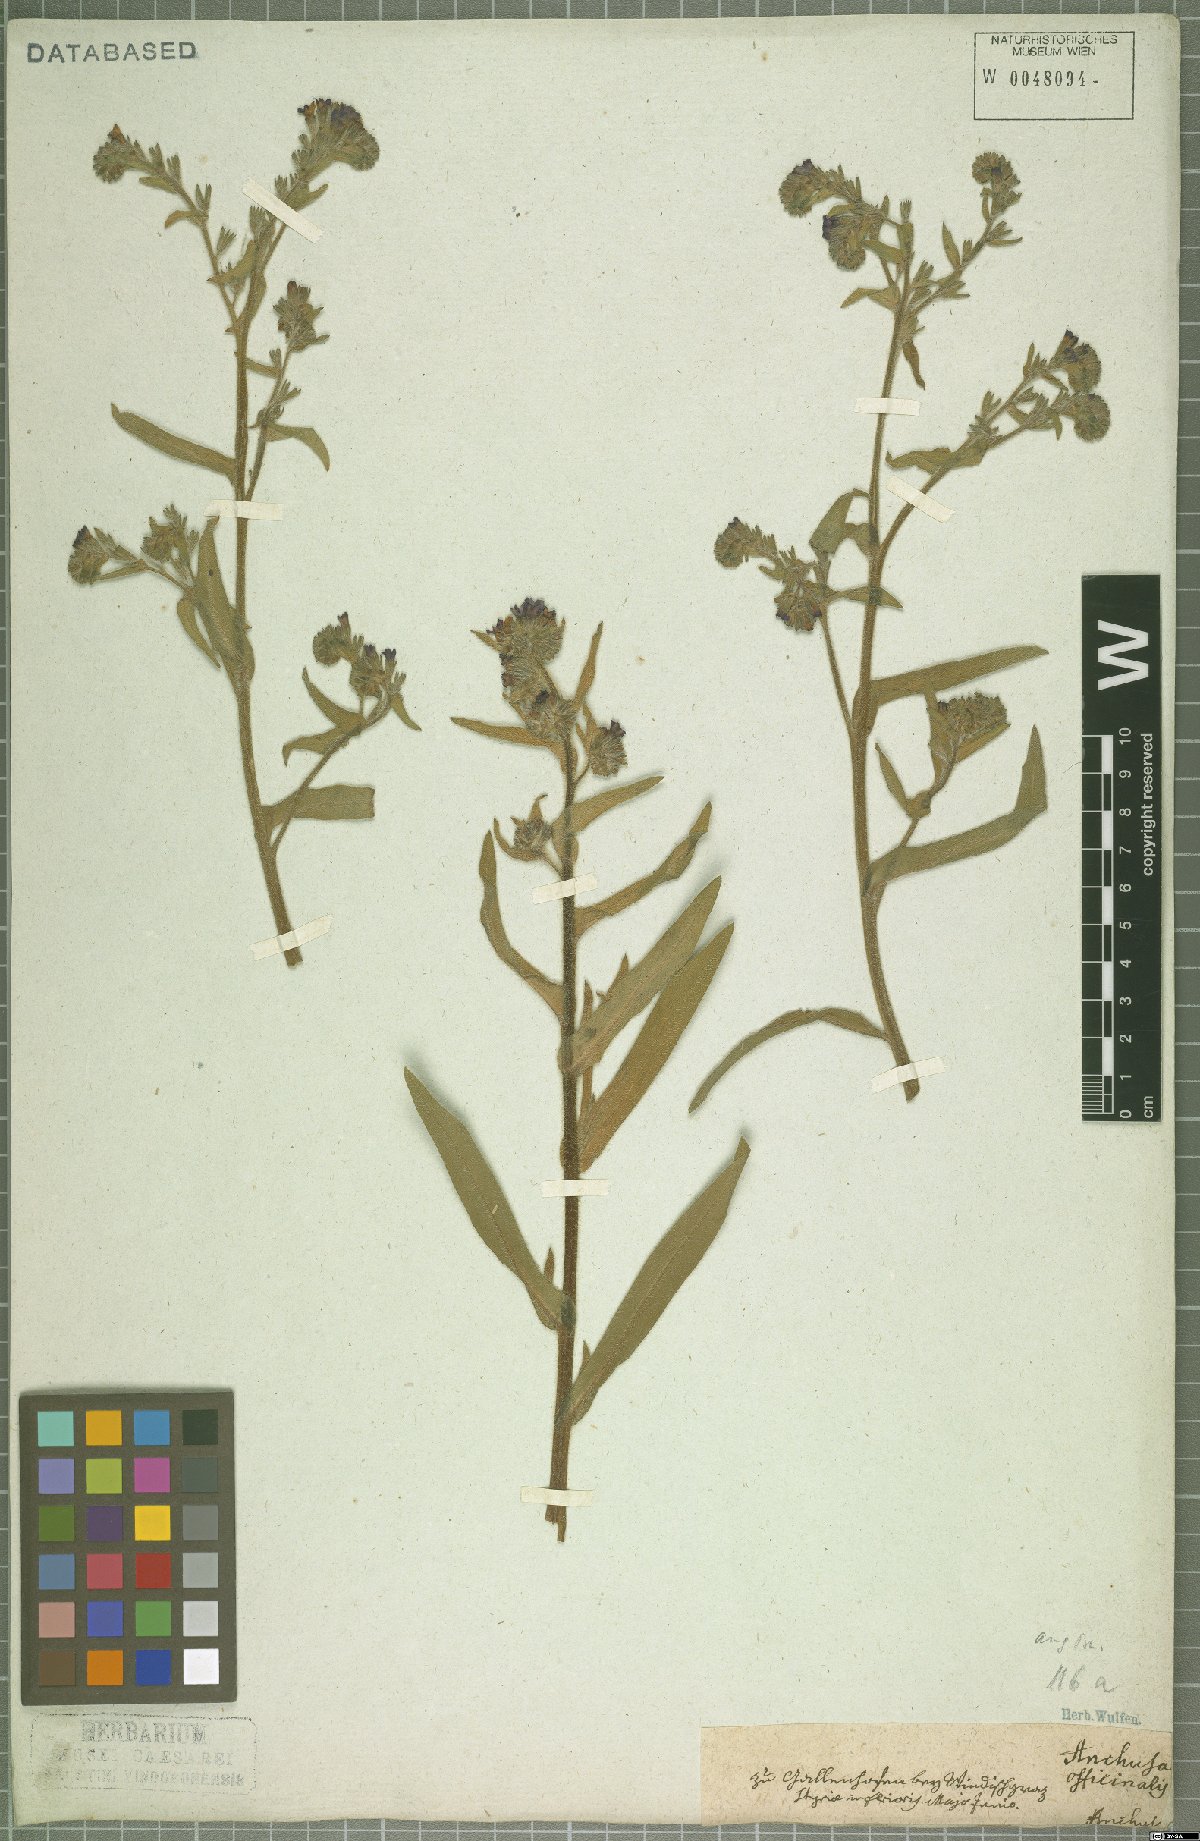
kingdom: Plantae
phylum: Tracheophyta
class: Magnoliopsida
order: Boraginales
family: Boraginaceae
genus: Anchusa
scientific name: Anchusa officinalis
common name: Alkanet
